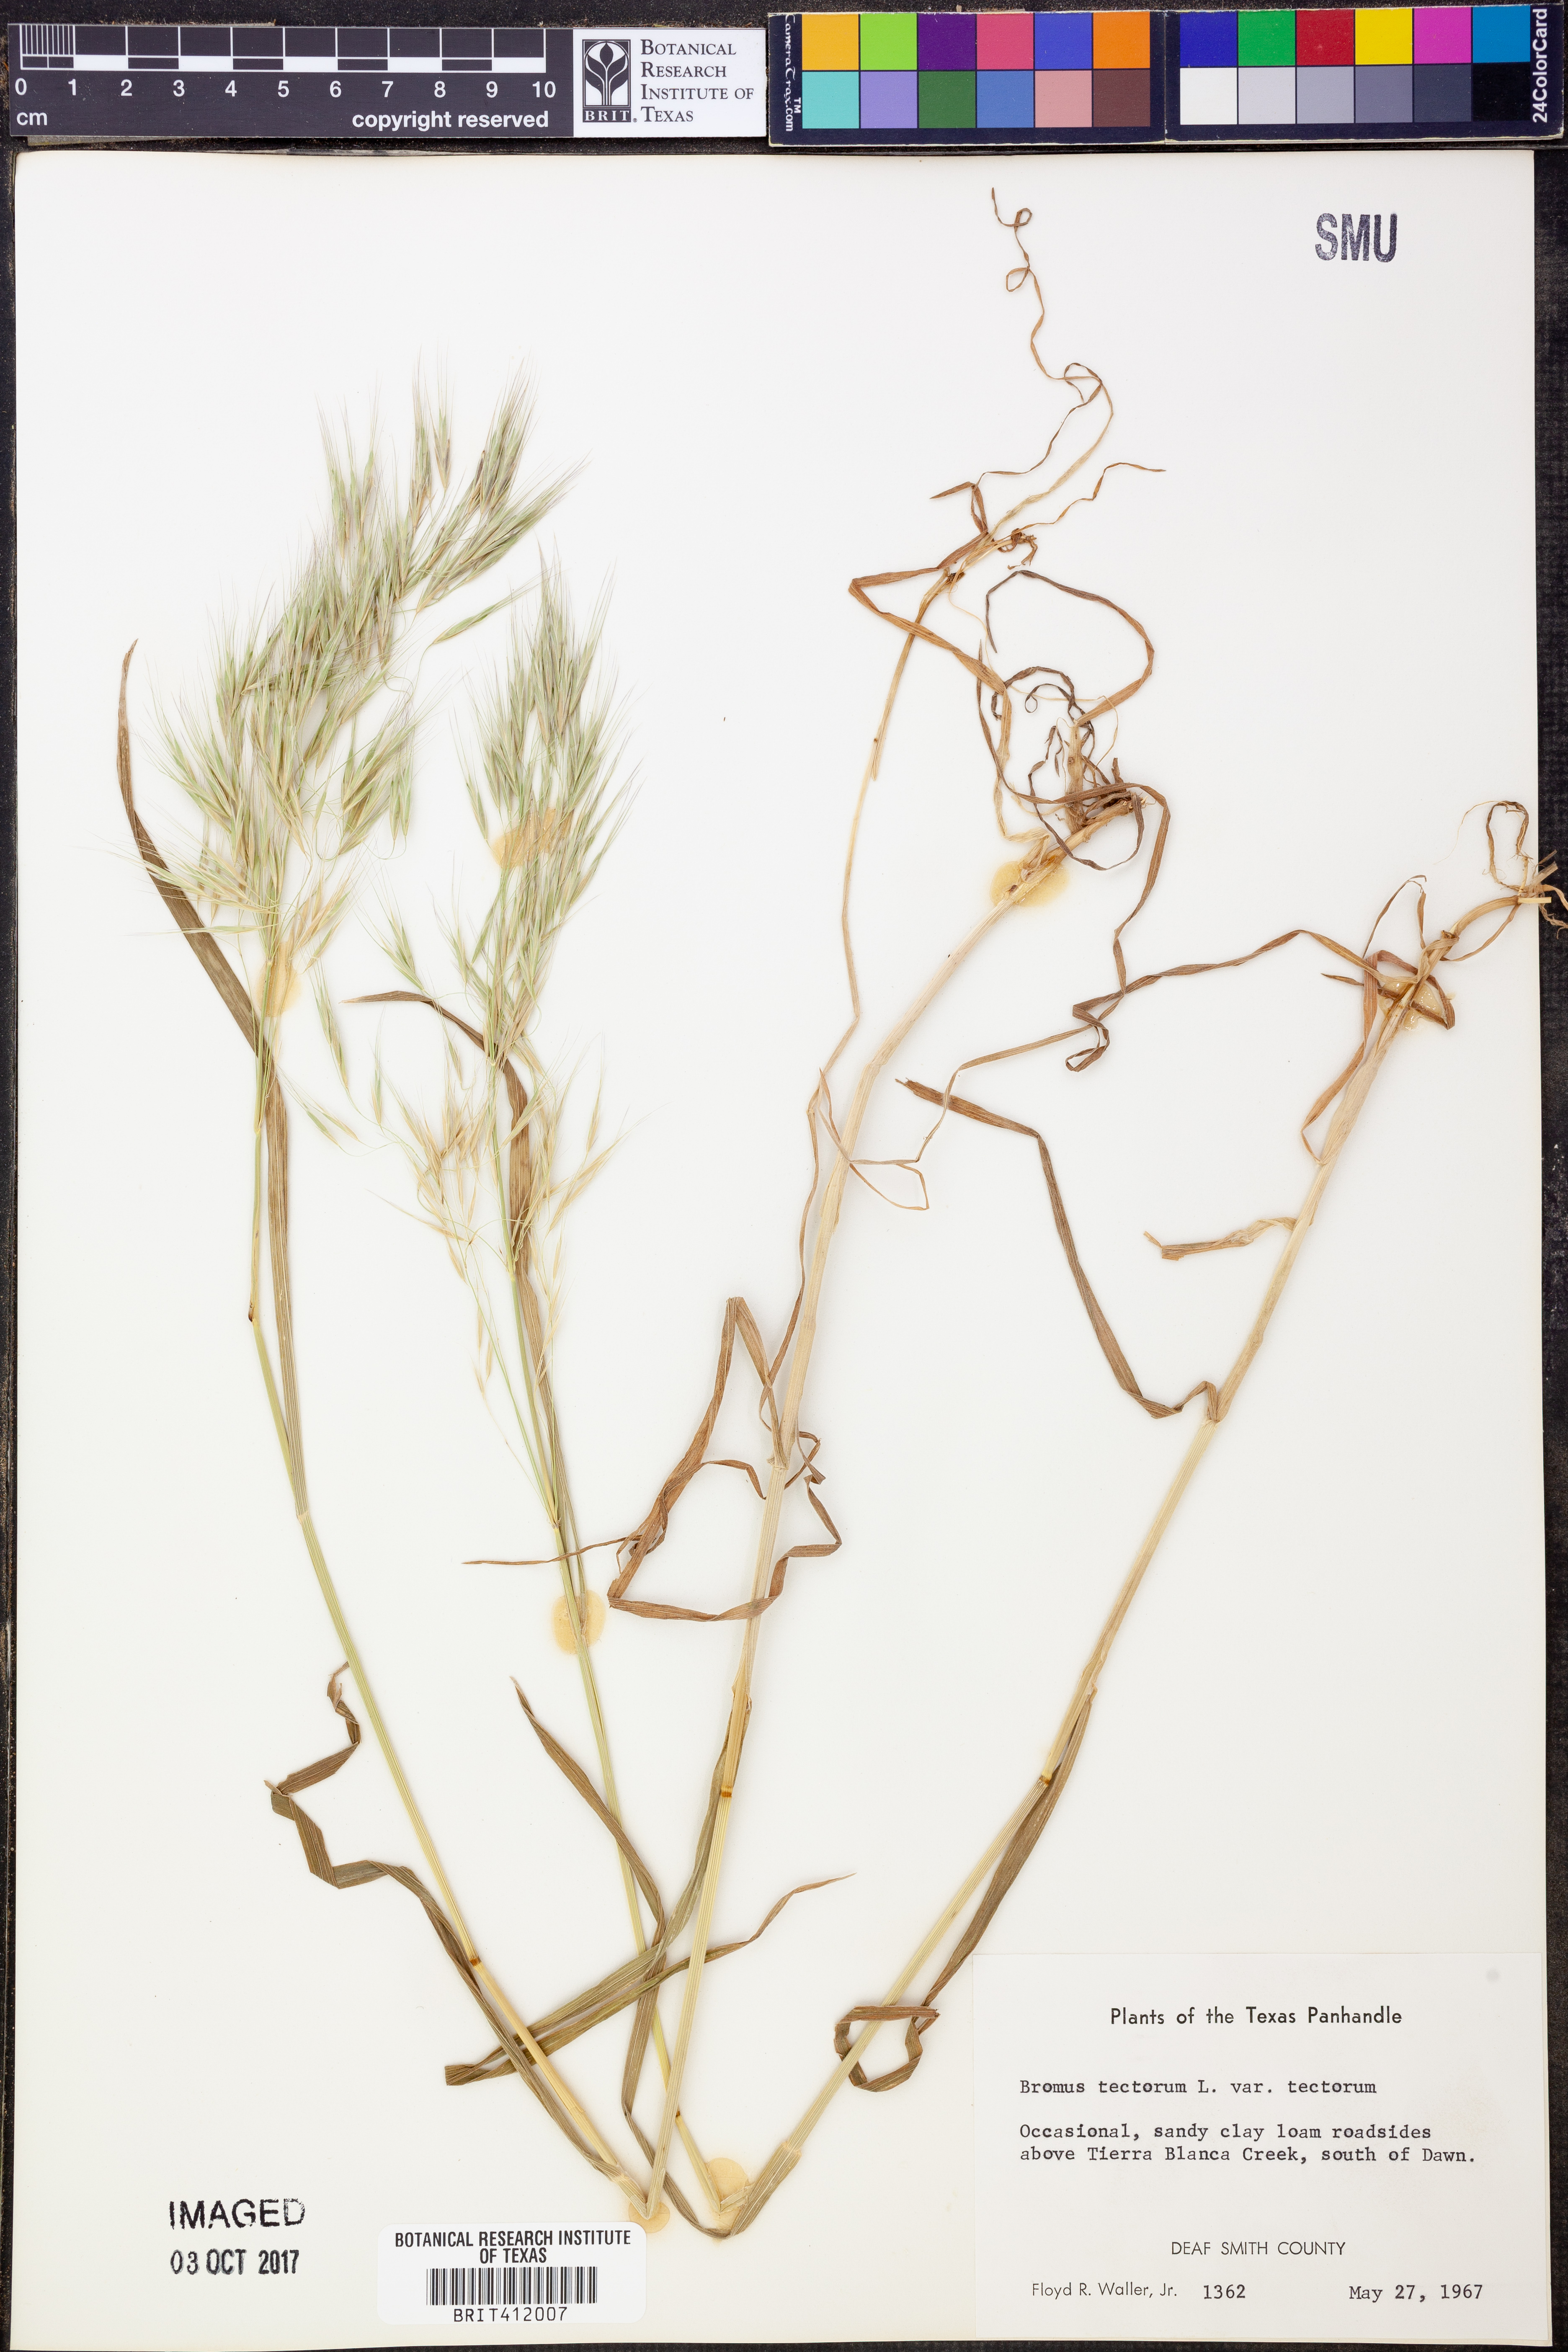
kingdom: Plantae
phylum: Tracheophyta
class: Liliopsida
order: Poales
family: Poaceae
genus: Bromus
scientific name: Bromus tectorum
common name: Cheatgrass
